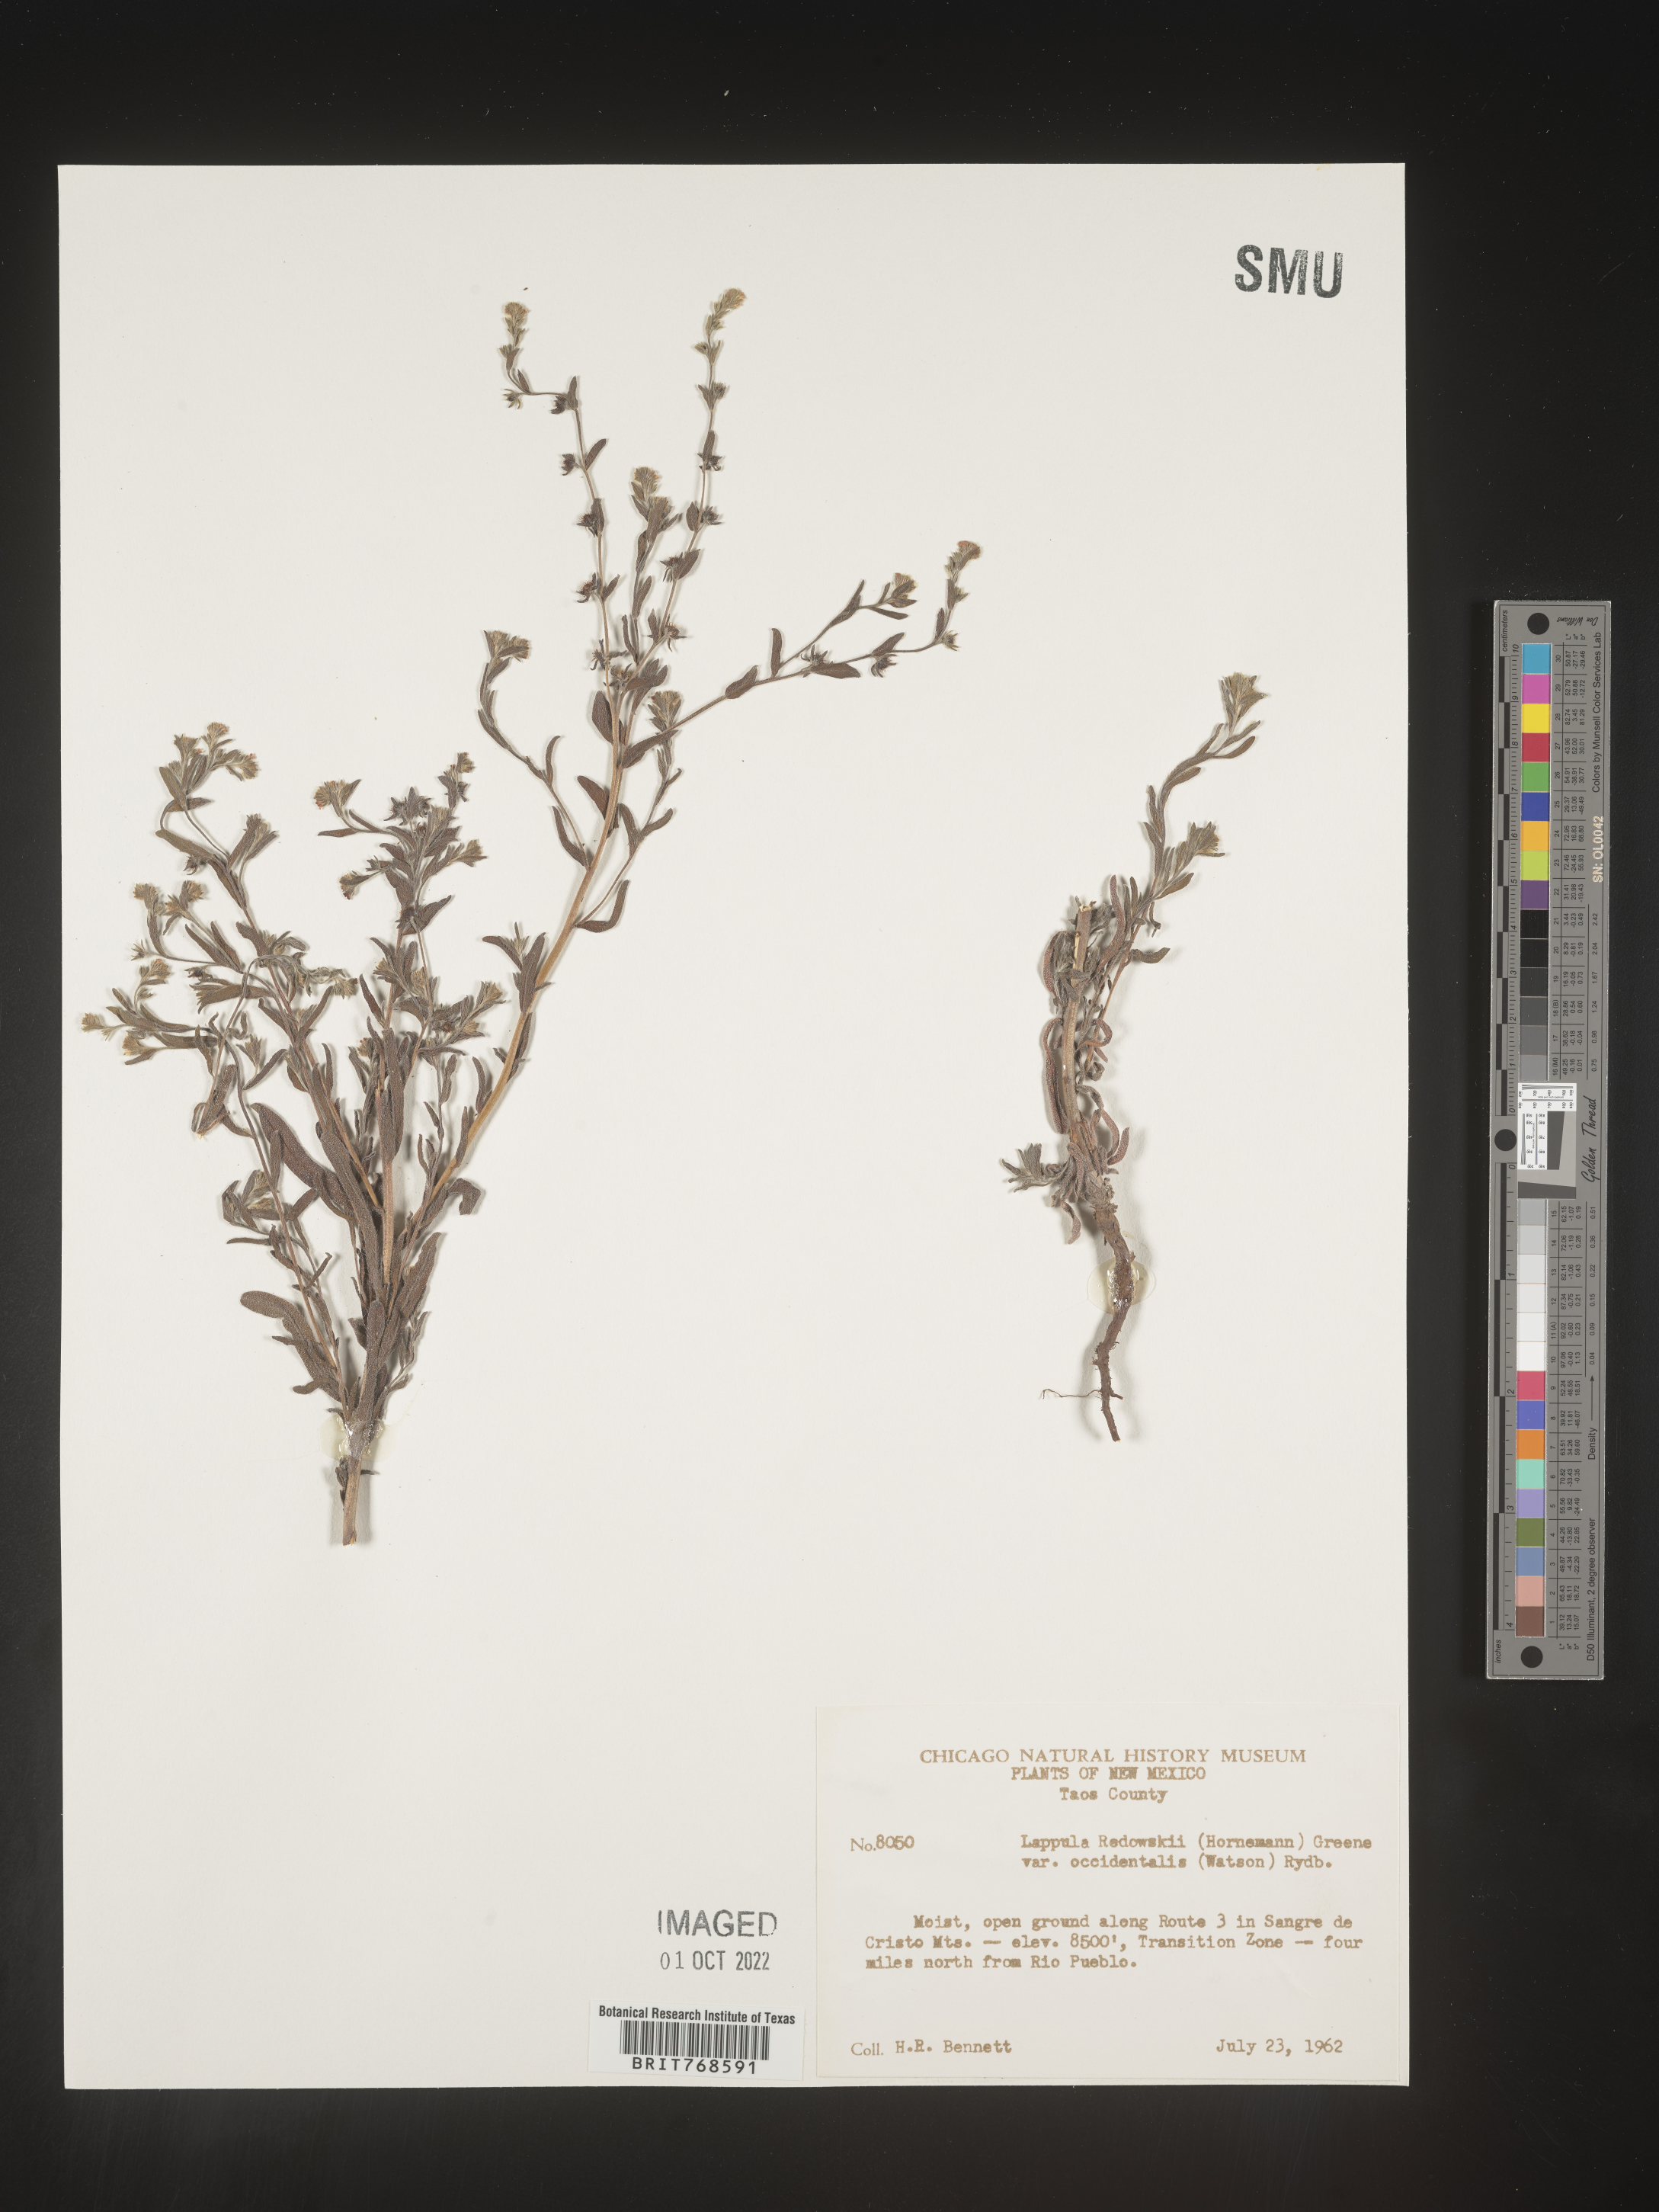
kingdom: Plantae
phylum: Tracheophyta
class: Magnoliopsida
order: Boraginales
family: Boraginaceae
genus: Lappula
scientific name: Lappula redowskii
